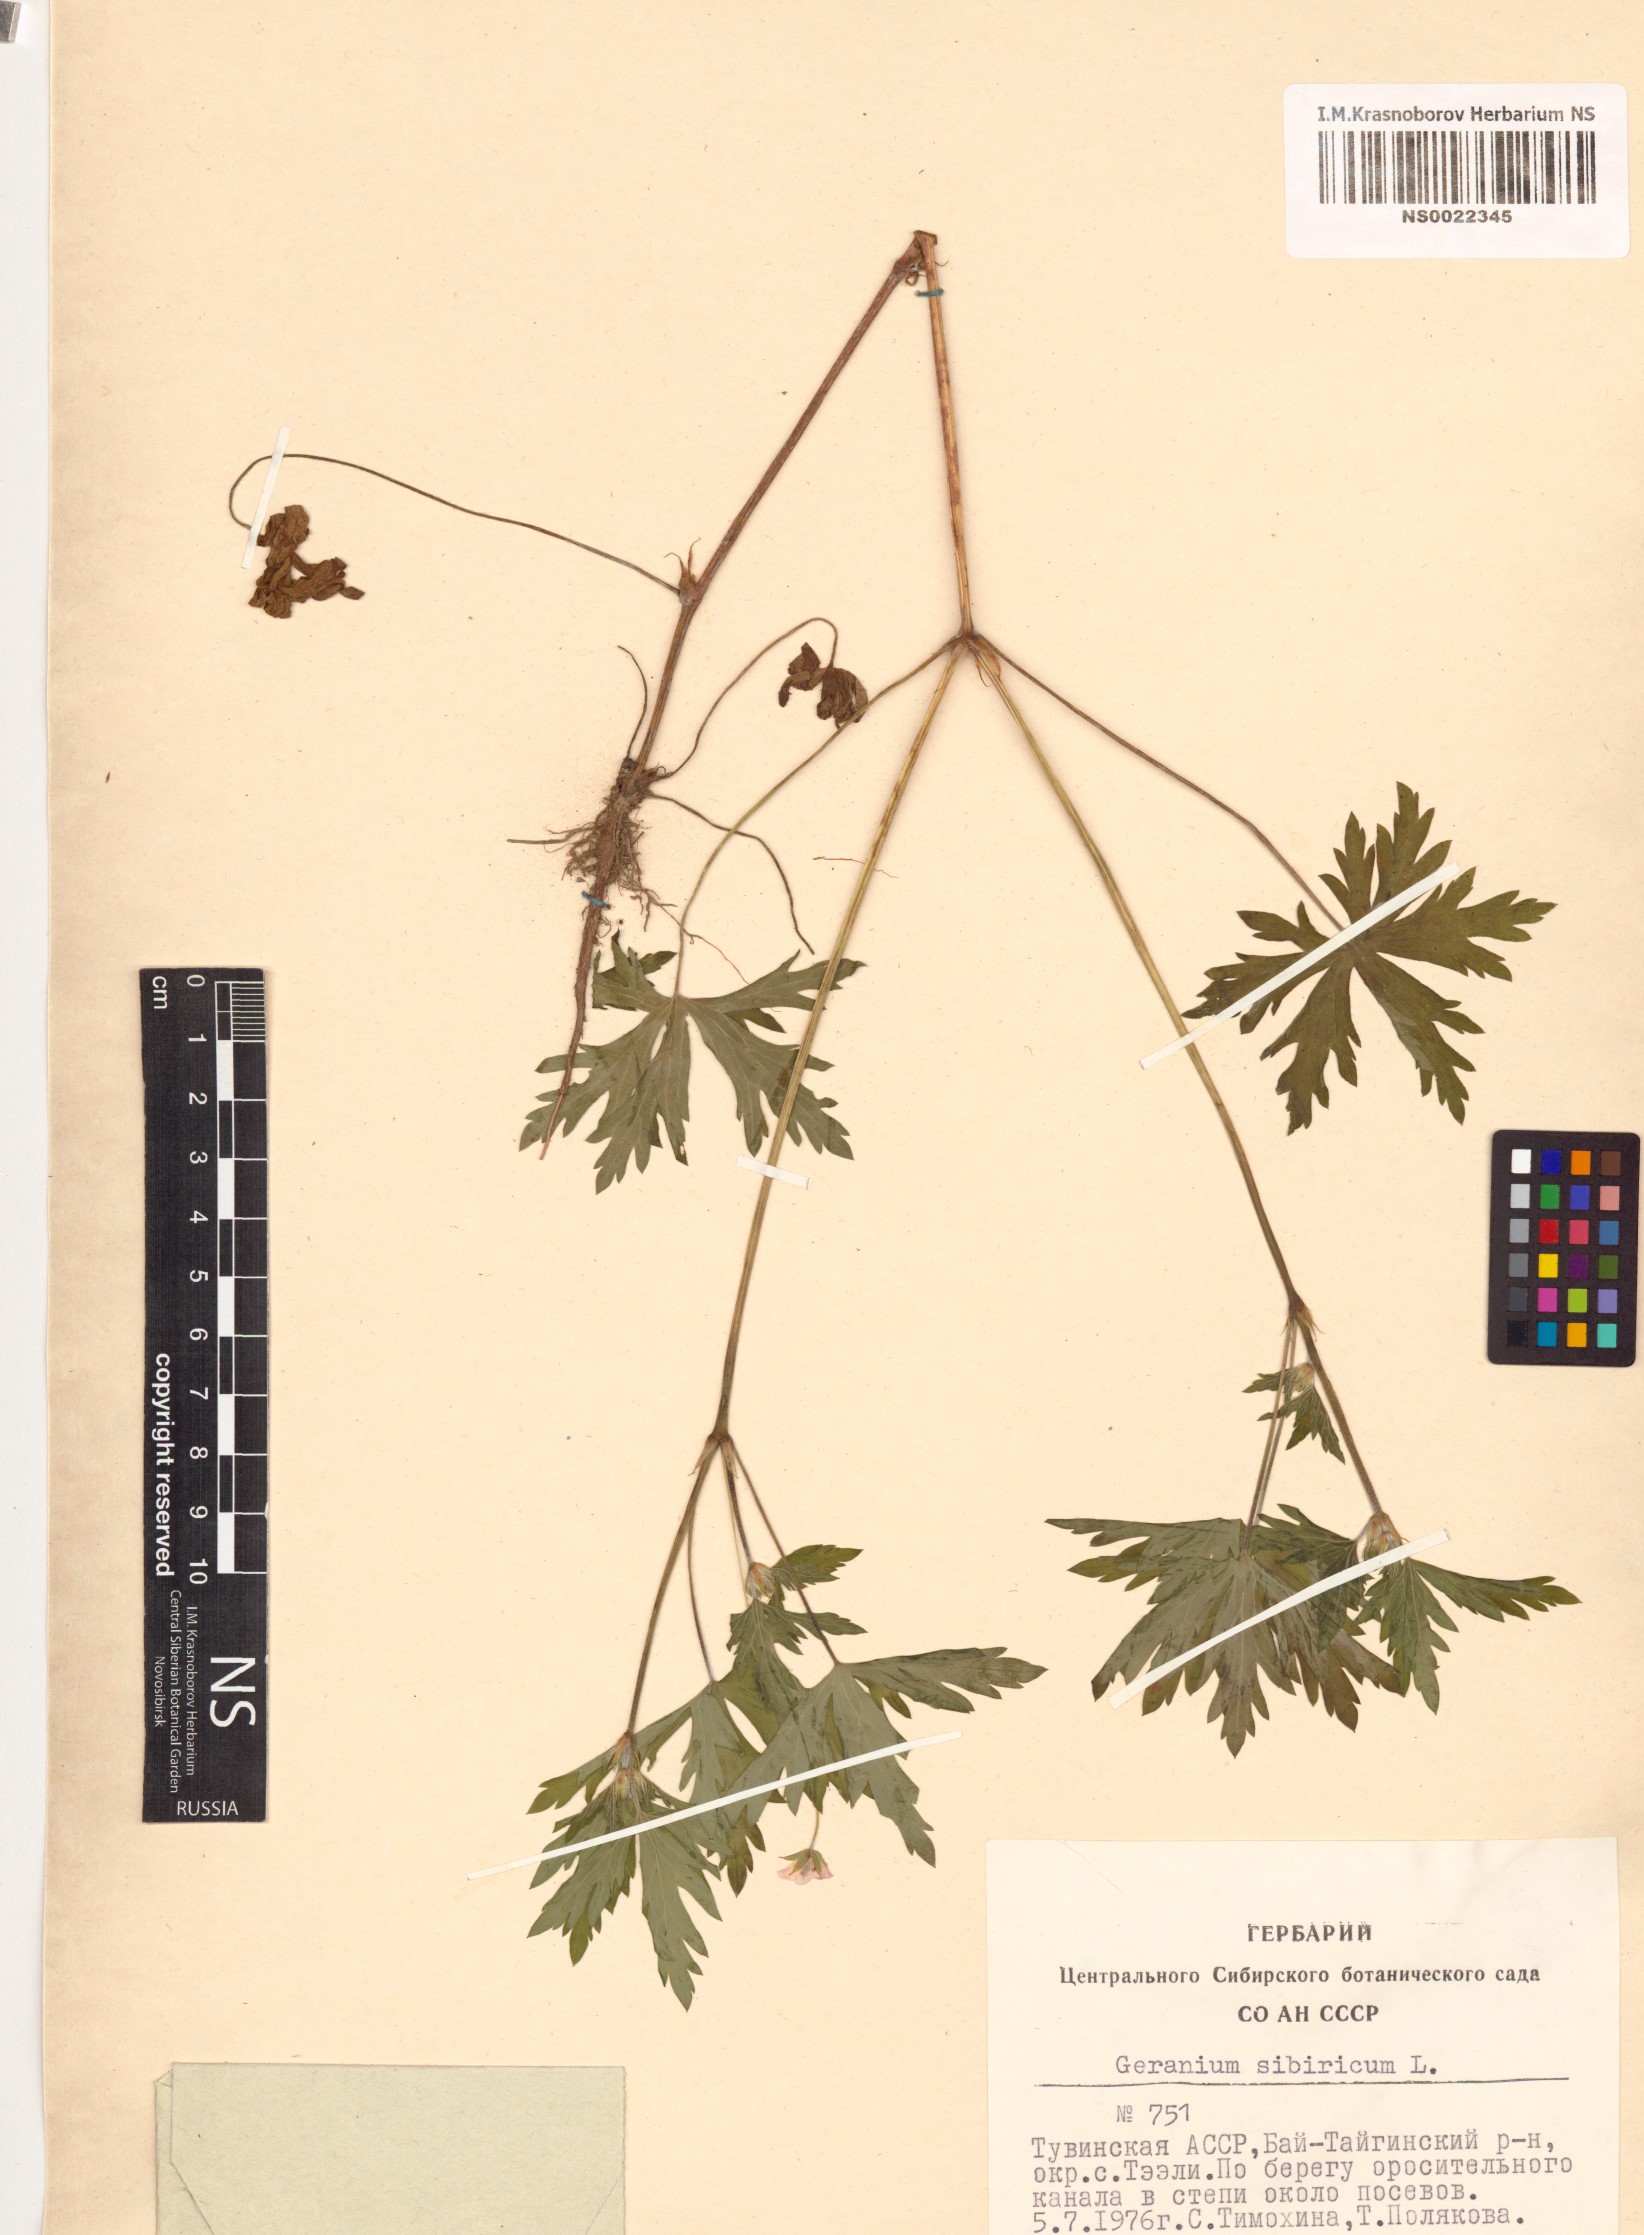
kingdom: Plantae
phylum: Tracheophyta
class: Magnoliopsida
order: Geraniales
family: Geraniaceae
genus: Geranium
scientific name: Geranium sibiricum
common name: Siberian crane's-bill
